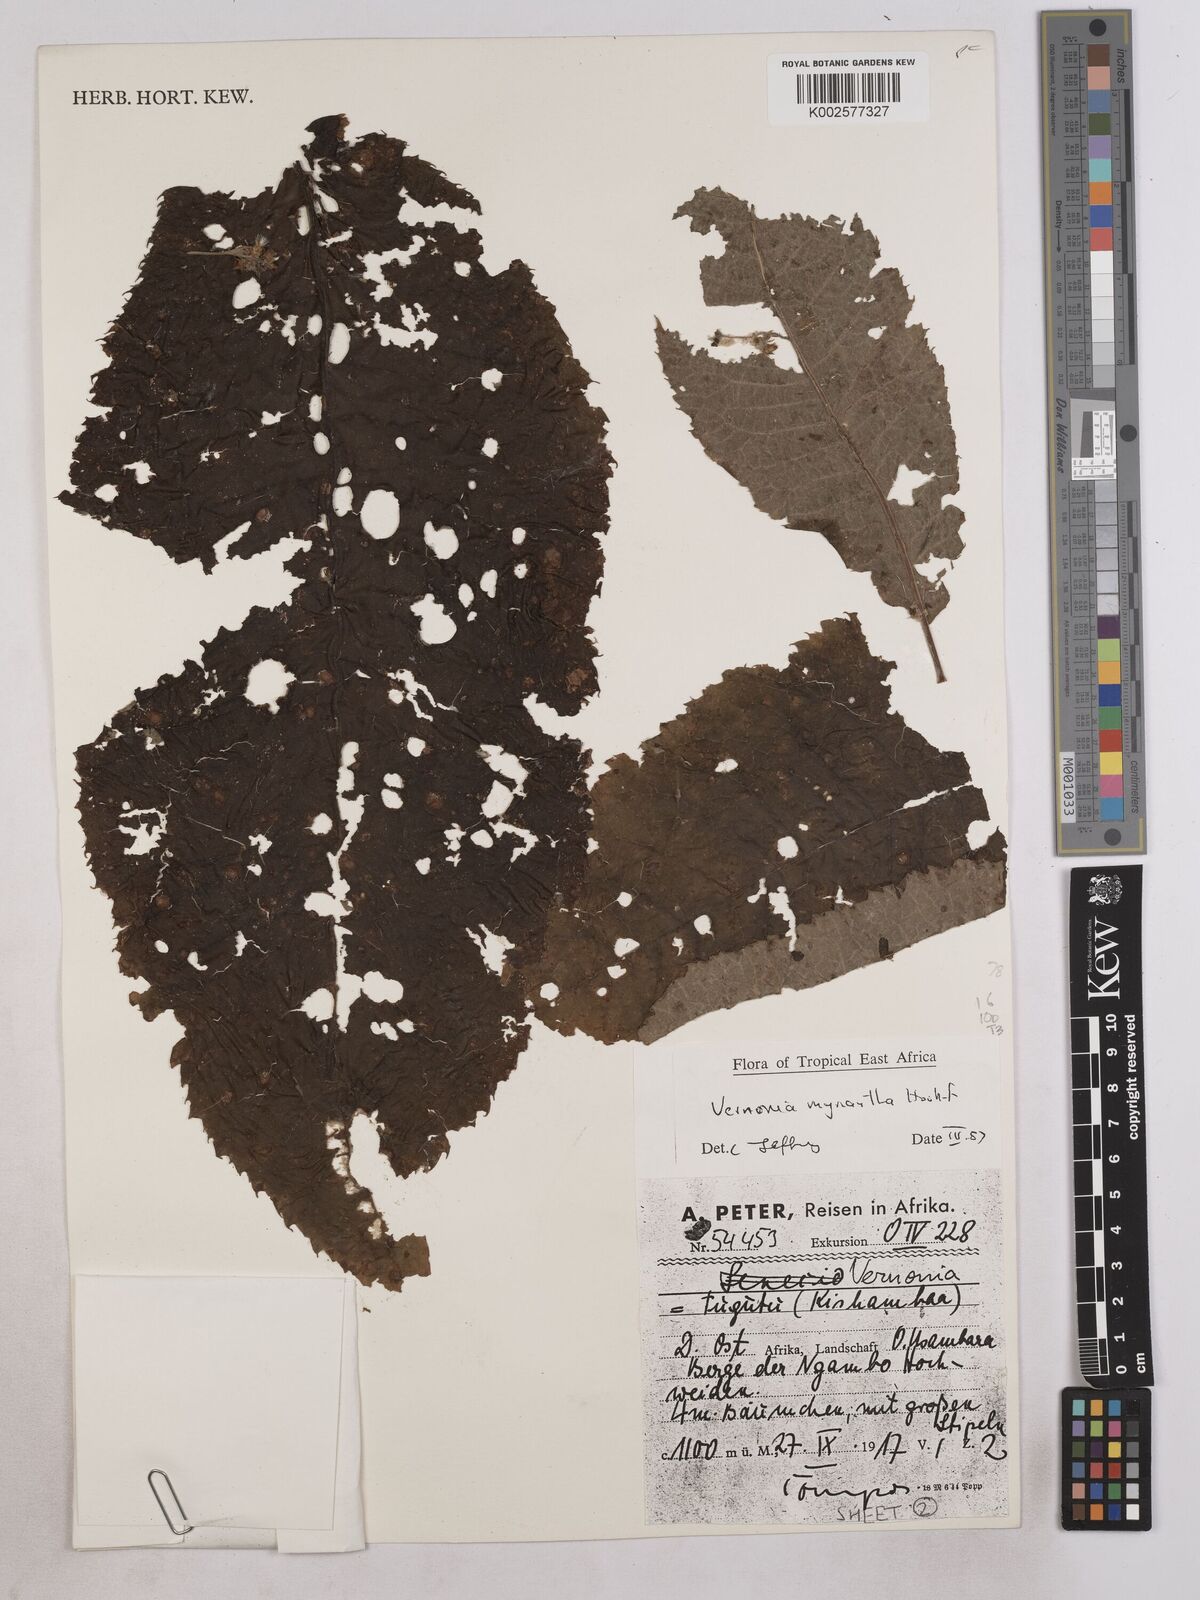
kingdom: Plantae
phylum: Tracheophyta
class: Magnoliopsida
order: Asterales
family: Asteraceae
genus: Gymnanthemum
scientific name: Gymnanthemum myrianthum
